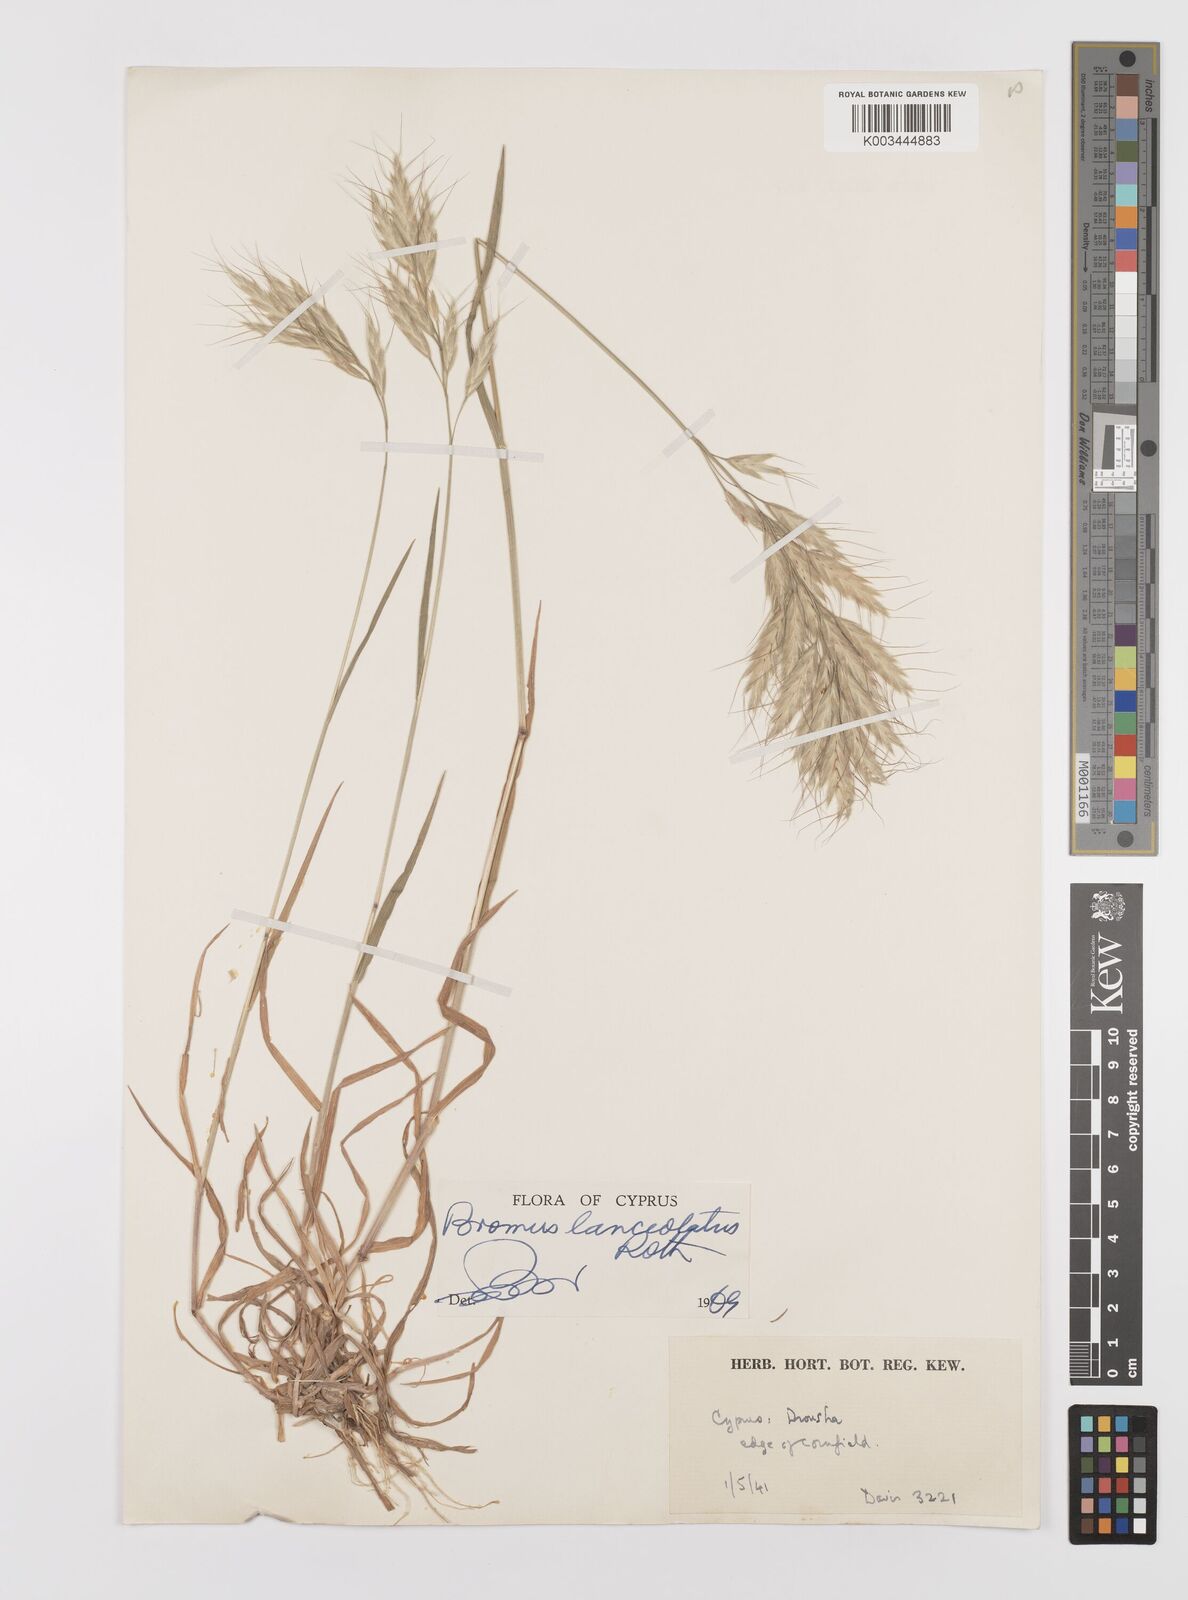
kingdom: Plantae
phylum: Tracheophyta
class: Liliopsida
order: Poales
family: Poaceae
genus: Bromus
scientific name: Bromus lanceolatus
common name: Mediterranean brome
